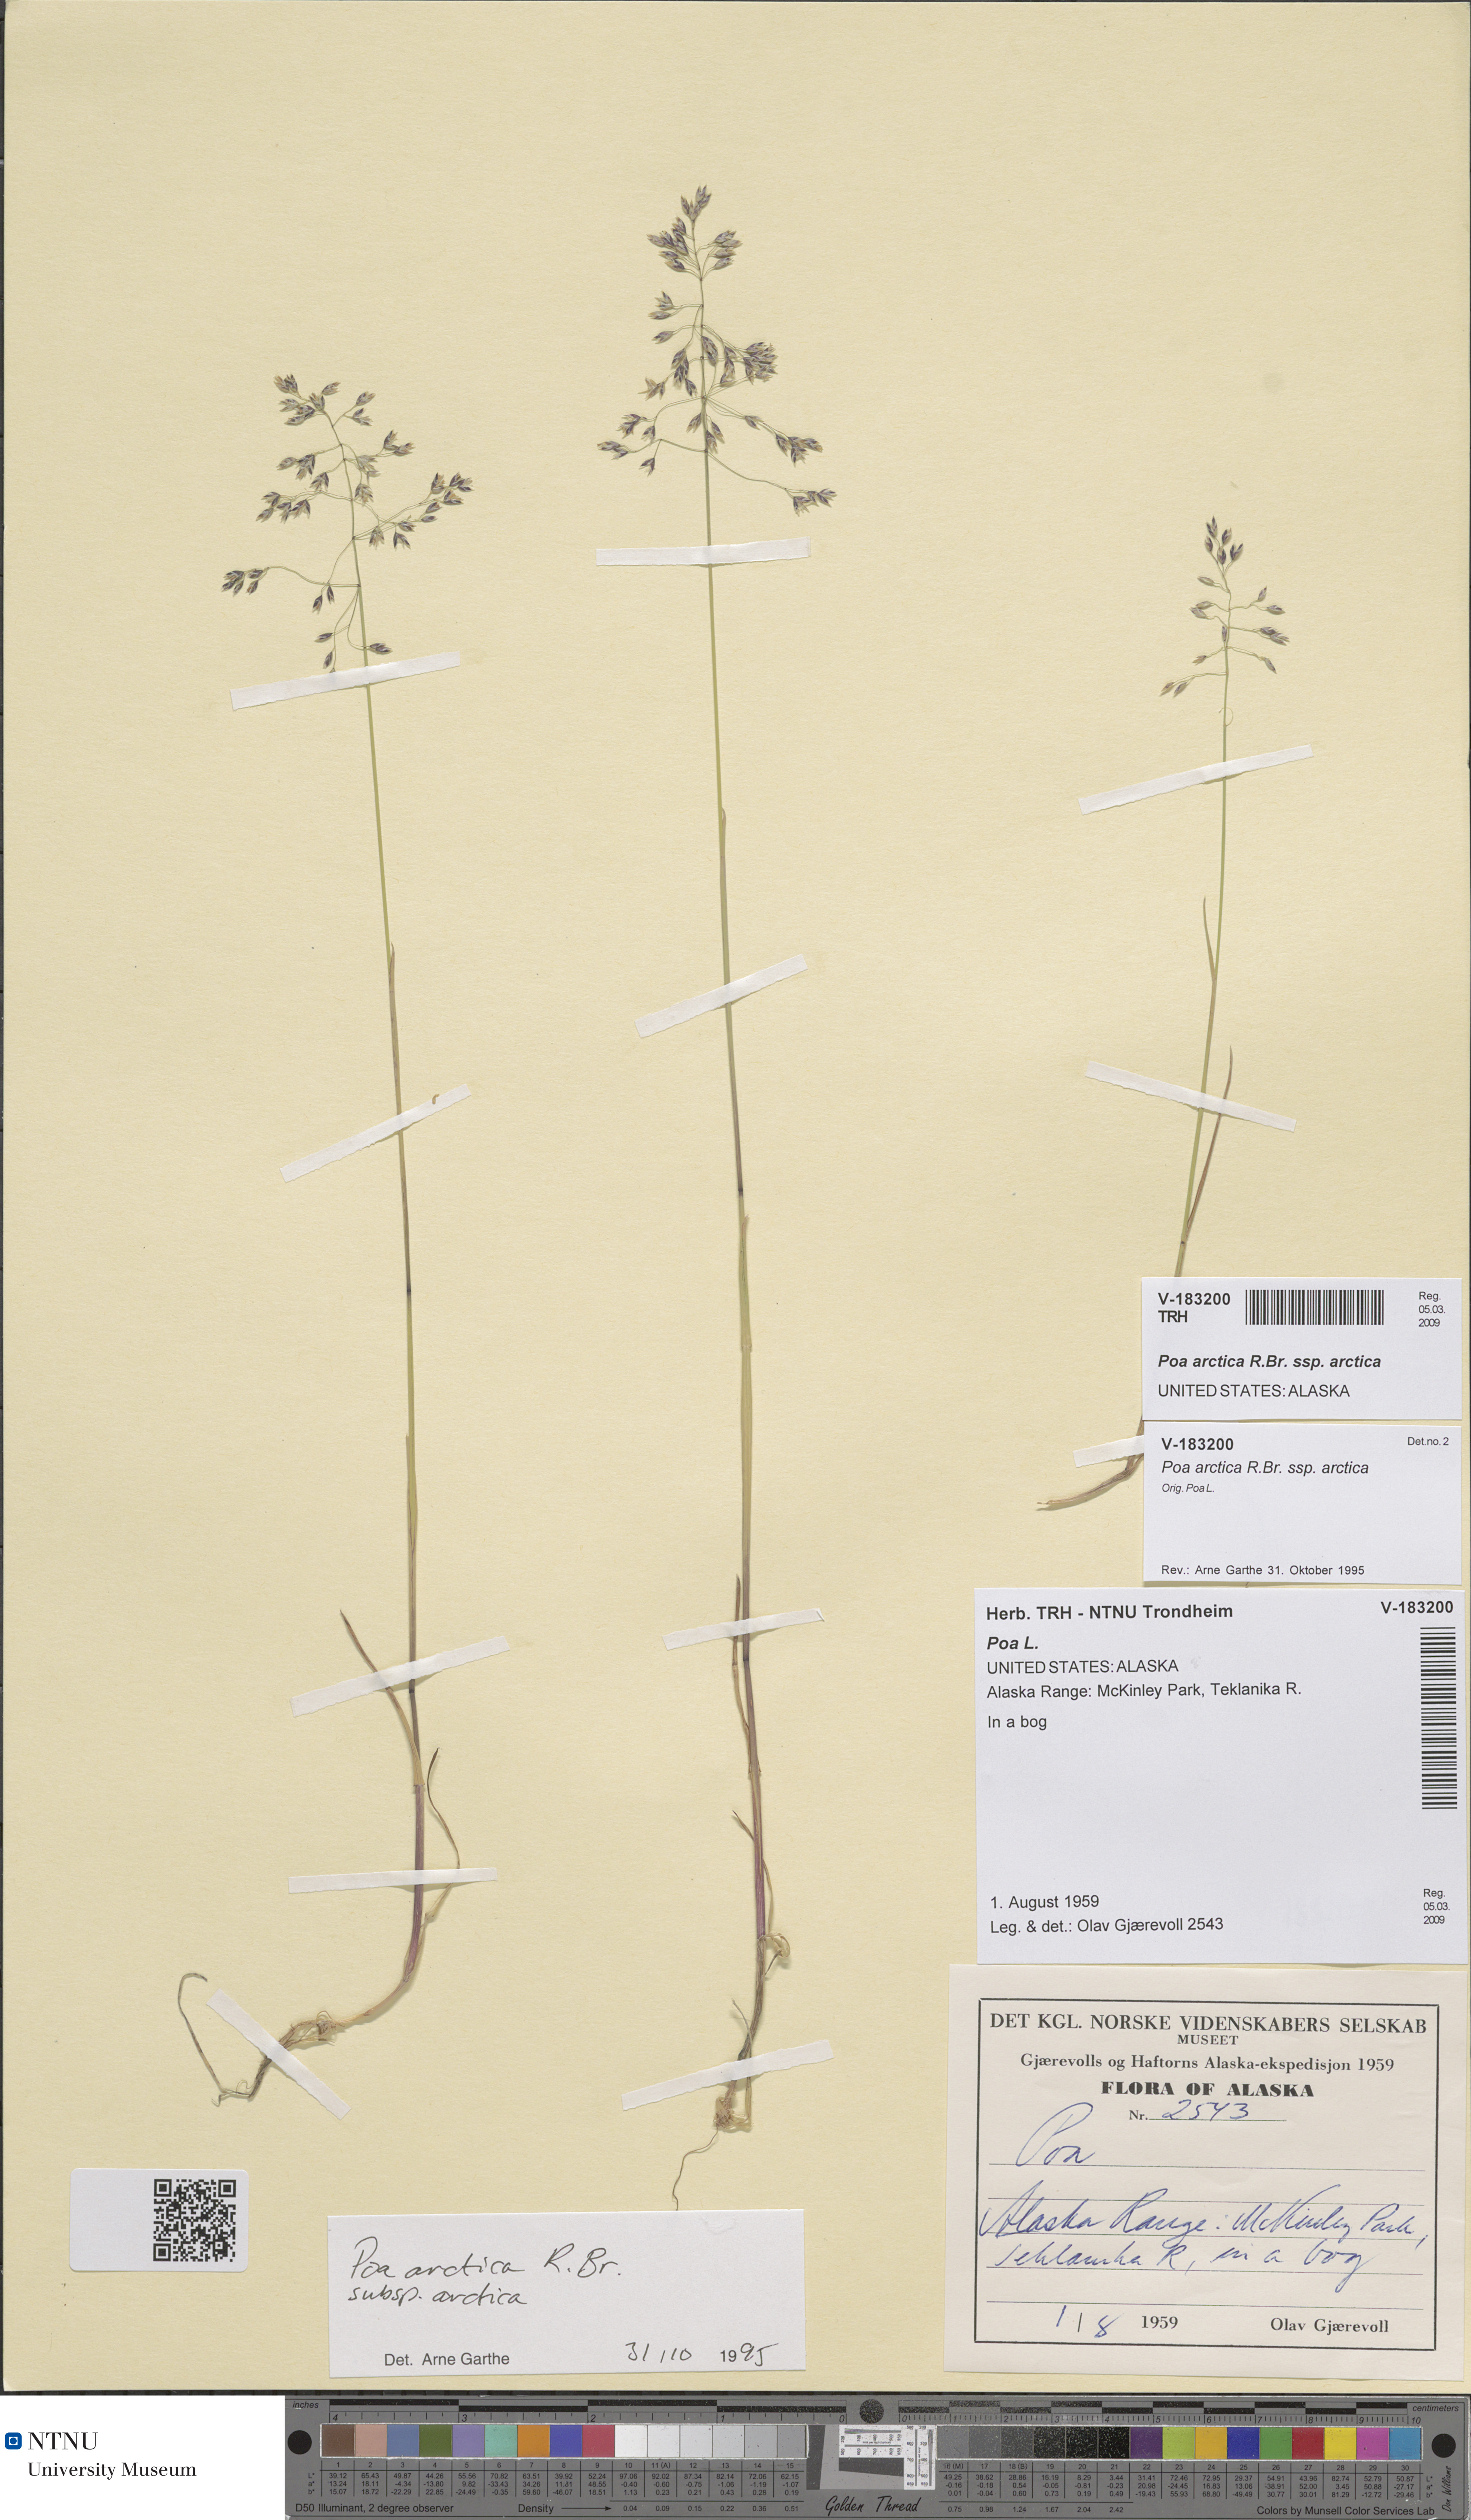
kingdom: Plantae
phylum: Tracheophyta
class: Liliopsida
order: Poales
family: Poaceae
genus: Poa
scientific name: Poa arctica
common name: Arctic bluegrass
